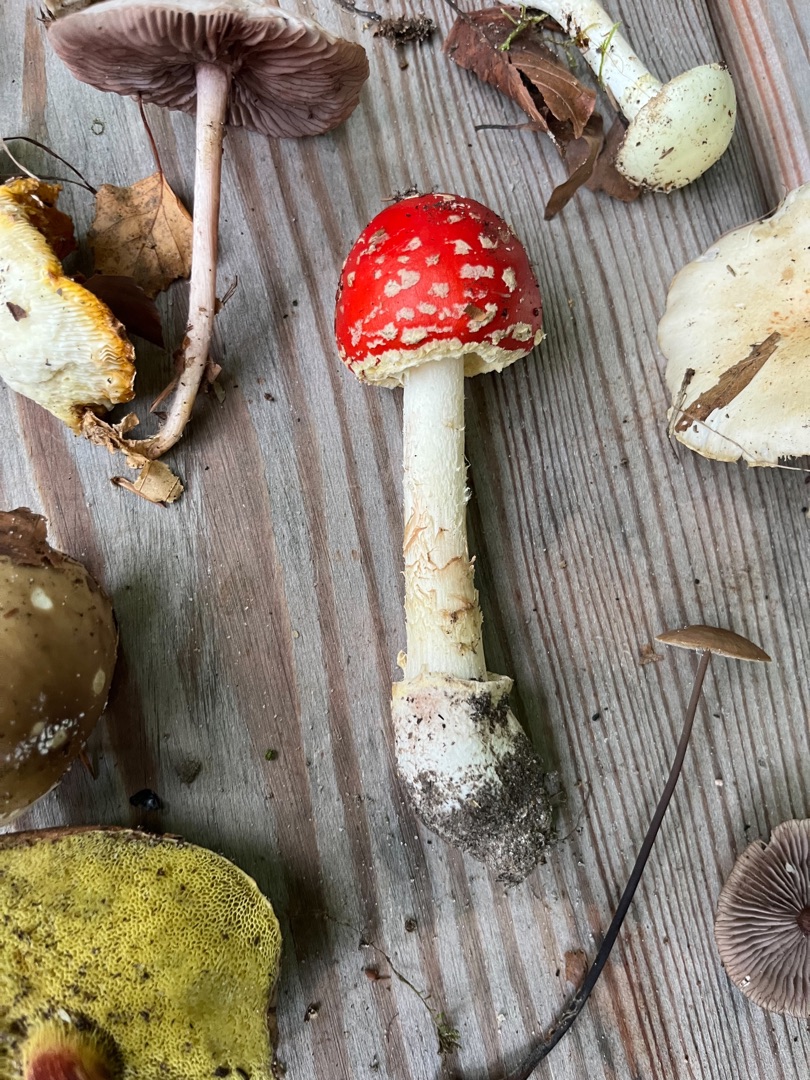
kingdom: Fungi
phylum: Basidiomycota
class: Agaricomycetes
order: Agaricales
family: Amanitaceae
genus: Amanita
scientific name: Amanita muscaria
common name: Rød fluesvamp
